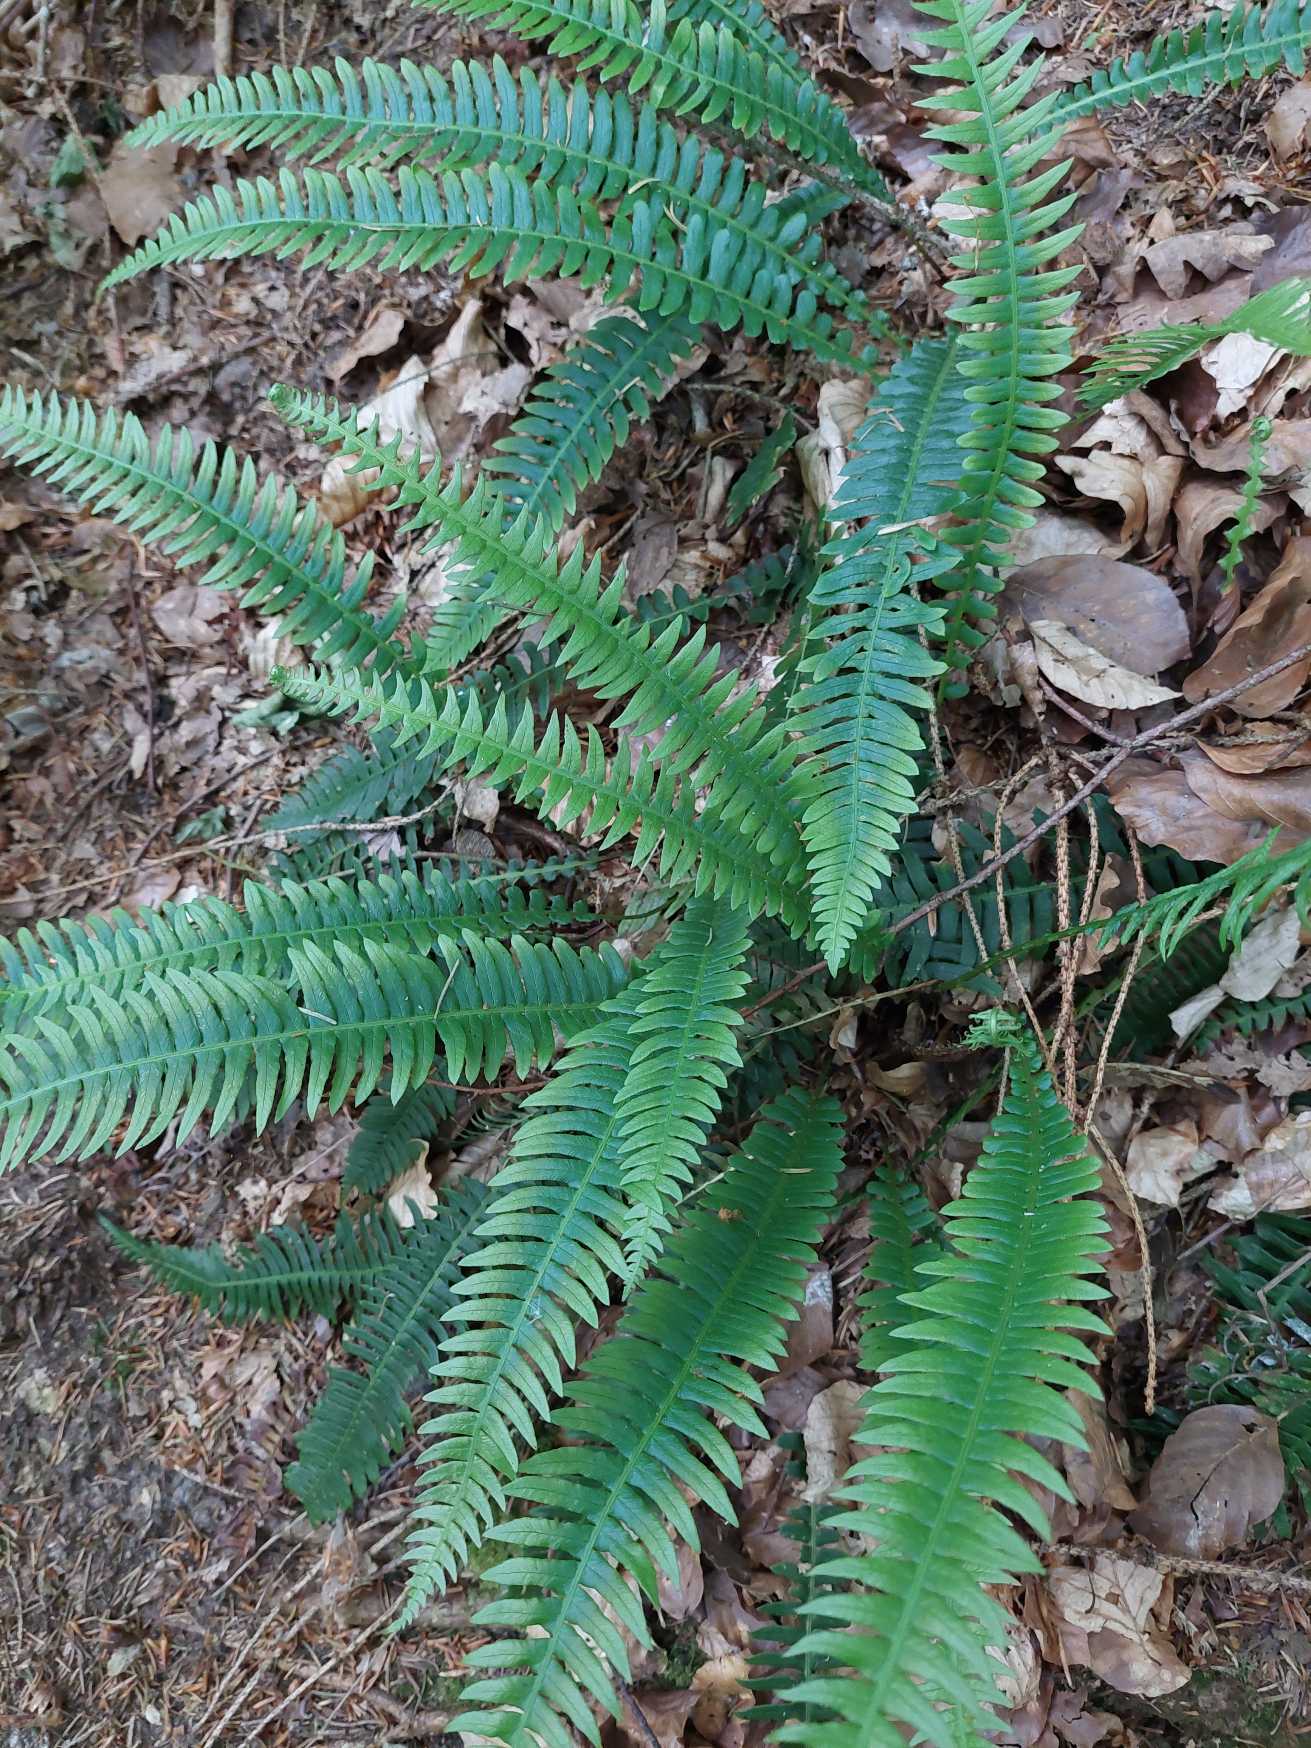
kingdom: Plantae
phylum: Tracheophyta
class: Polypodiopsida
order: Polypodiales
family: Blechnaceae
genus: Struthiopteris
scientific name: Struthiopteris spicant
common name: Kambregne
